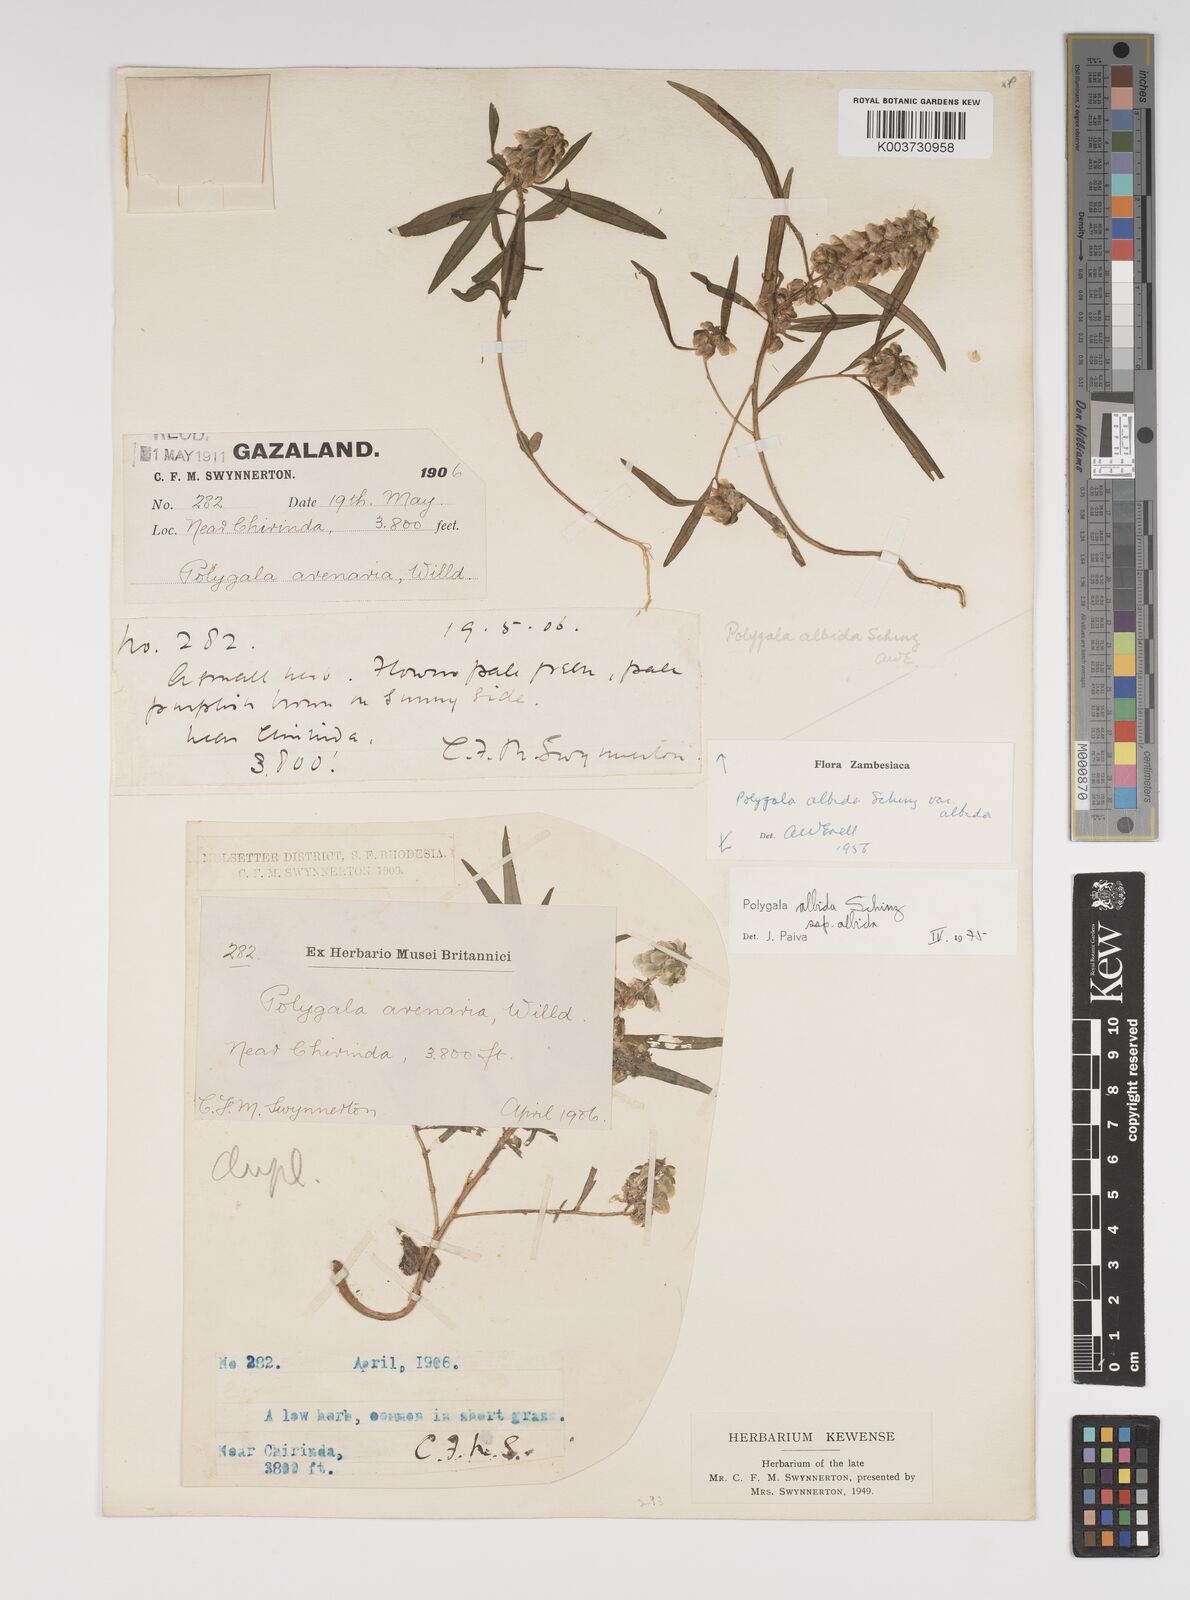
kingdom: Plantae
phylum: Tracheophyta
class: Magnoliopsida
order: Fabales
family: Polygalaceae
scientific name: Polygalaceae
